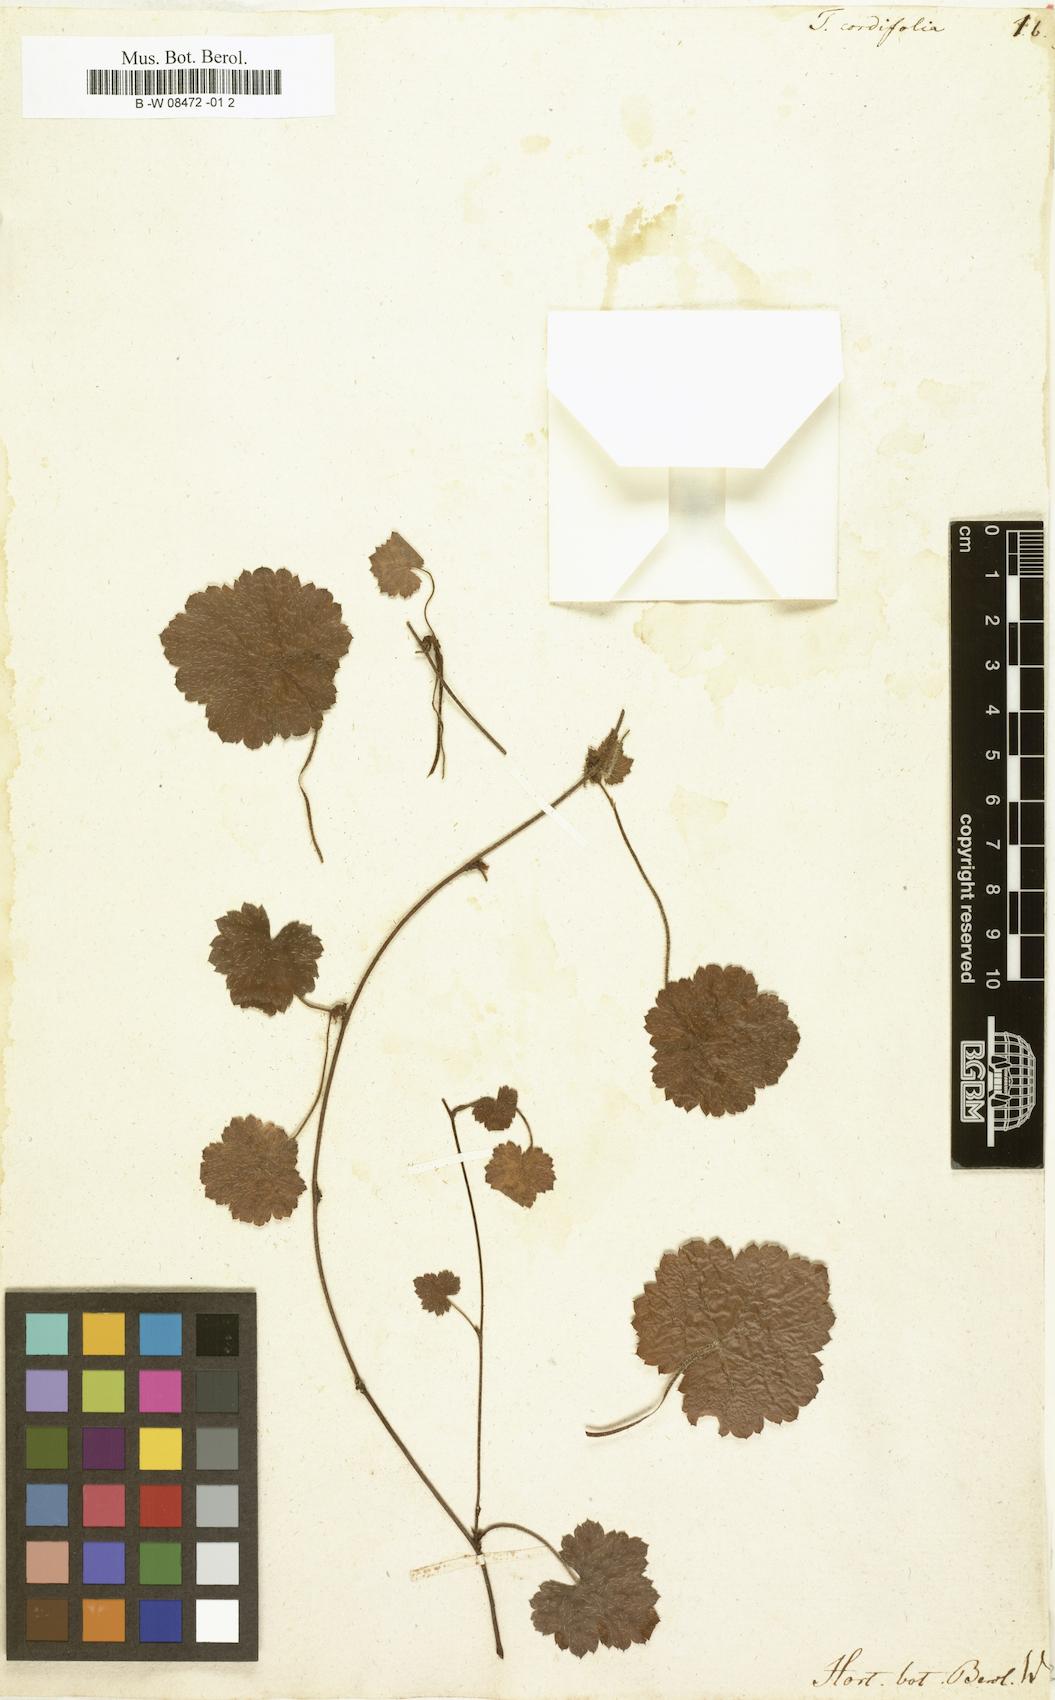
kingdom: Plantae
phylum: Tracheophyta
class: Magnoliopsida
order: Saxifragales
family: Saxifragaceae
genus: Tiarella
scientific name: Tiarella cordifolia
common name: Foamflower
